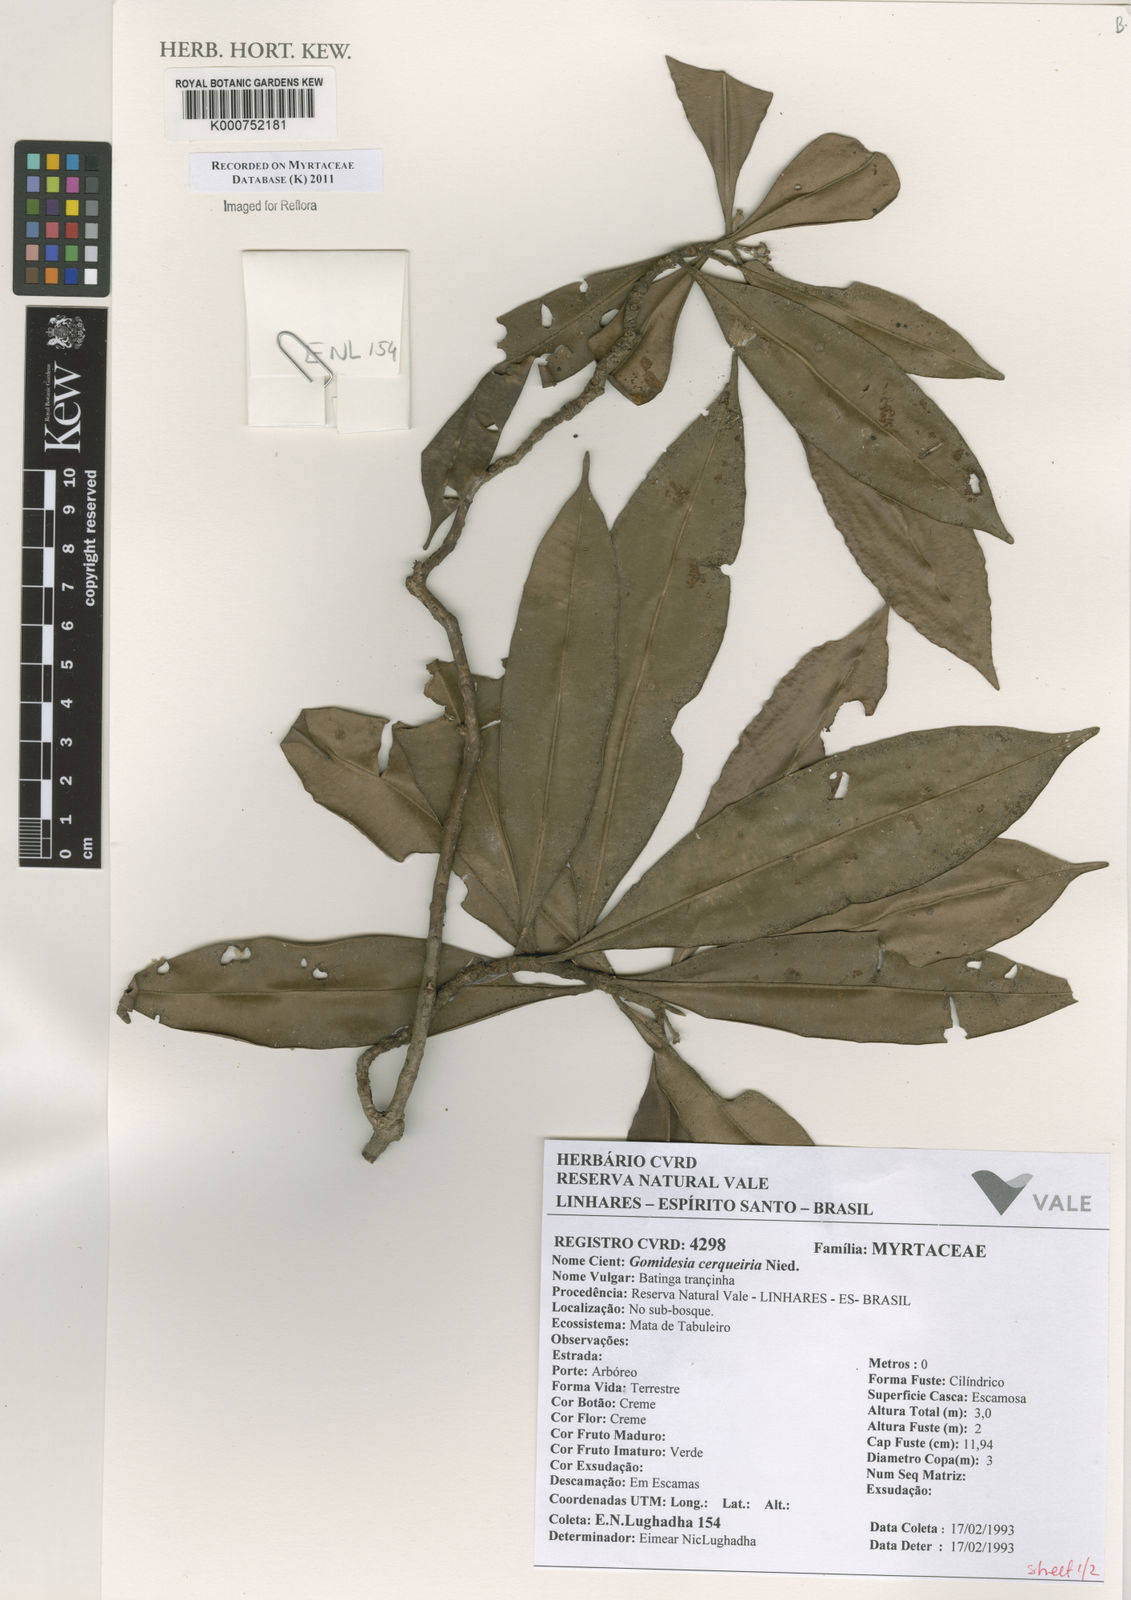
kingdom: Plantae
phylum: Tracheophyta
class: Magnoliopsida
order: Myrtales
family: Myrtaceae
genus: Myrcia
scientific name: Myrcia cerqueiria
